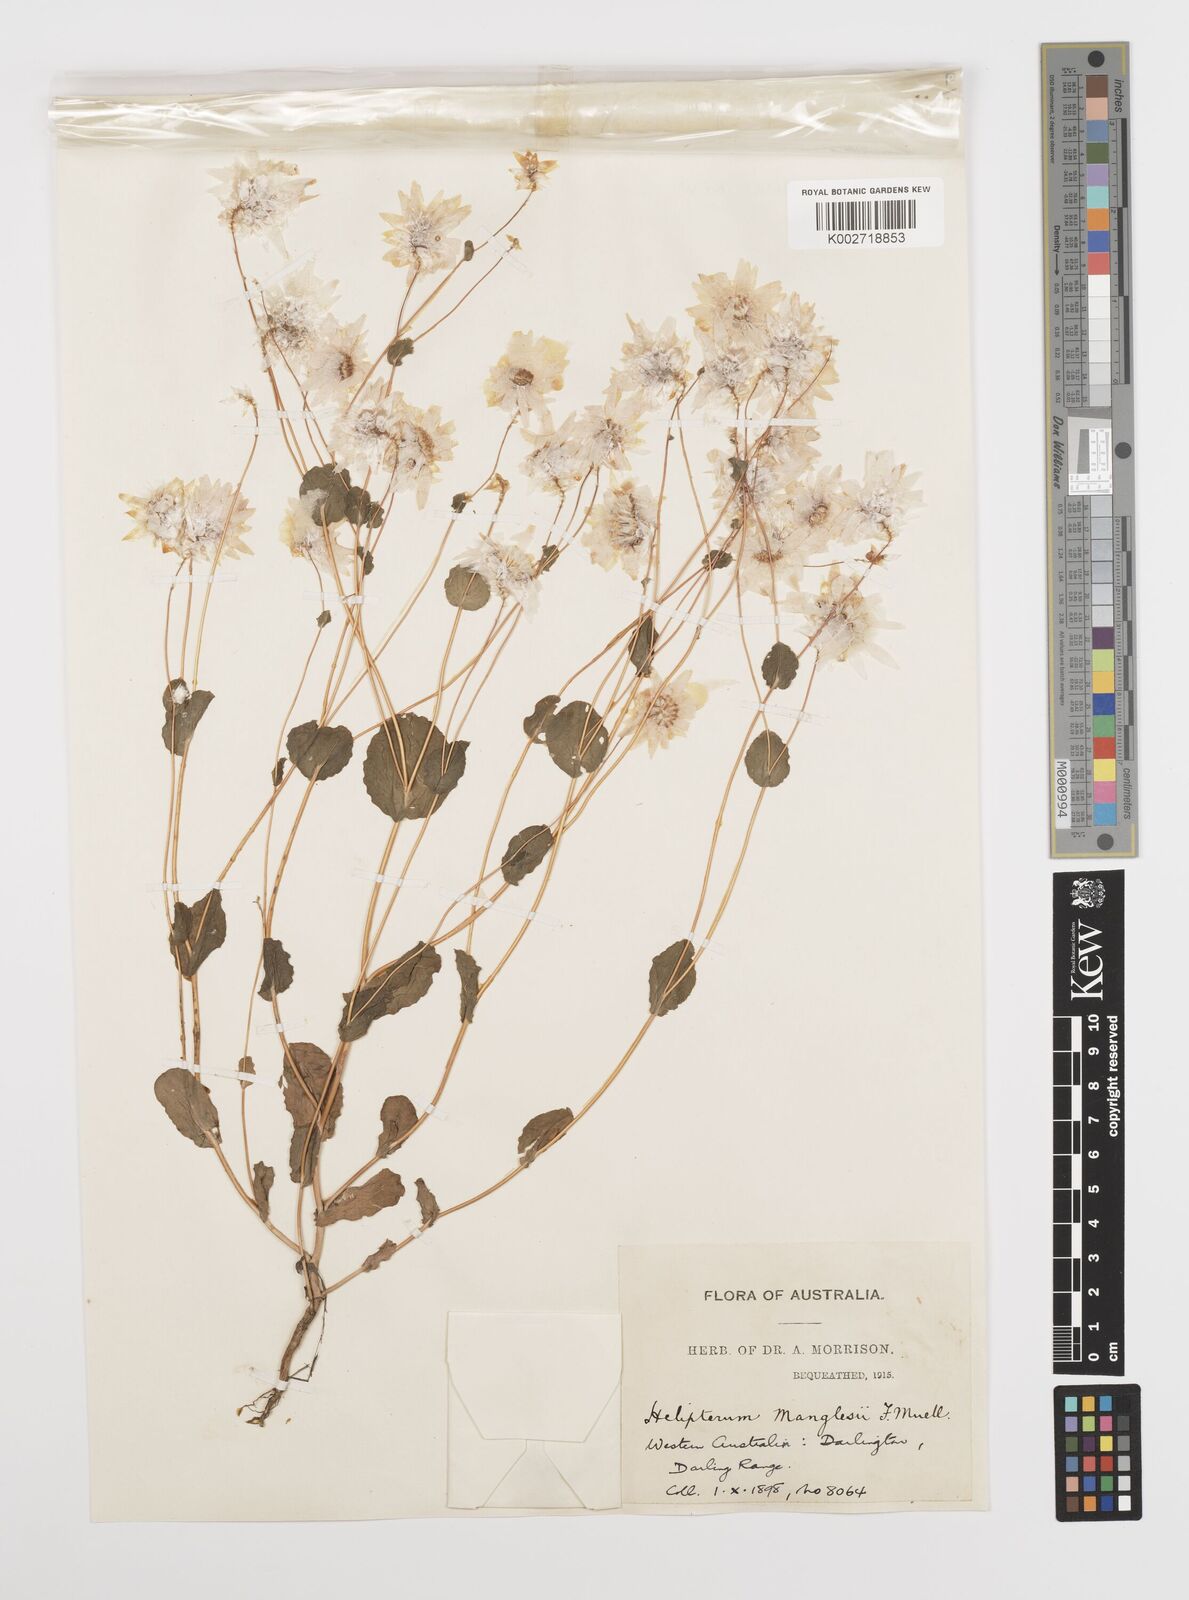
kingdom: Plantae
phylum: Tracheophyta
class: Magnoliopsida
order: Asterales
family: Asteraceae
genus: Rhodanthe
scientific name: Rhodanthe manglesii
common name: Pink sunray
